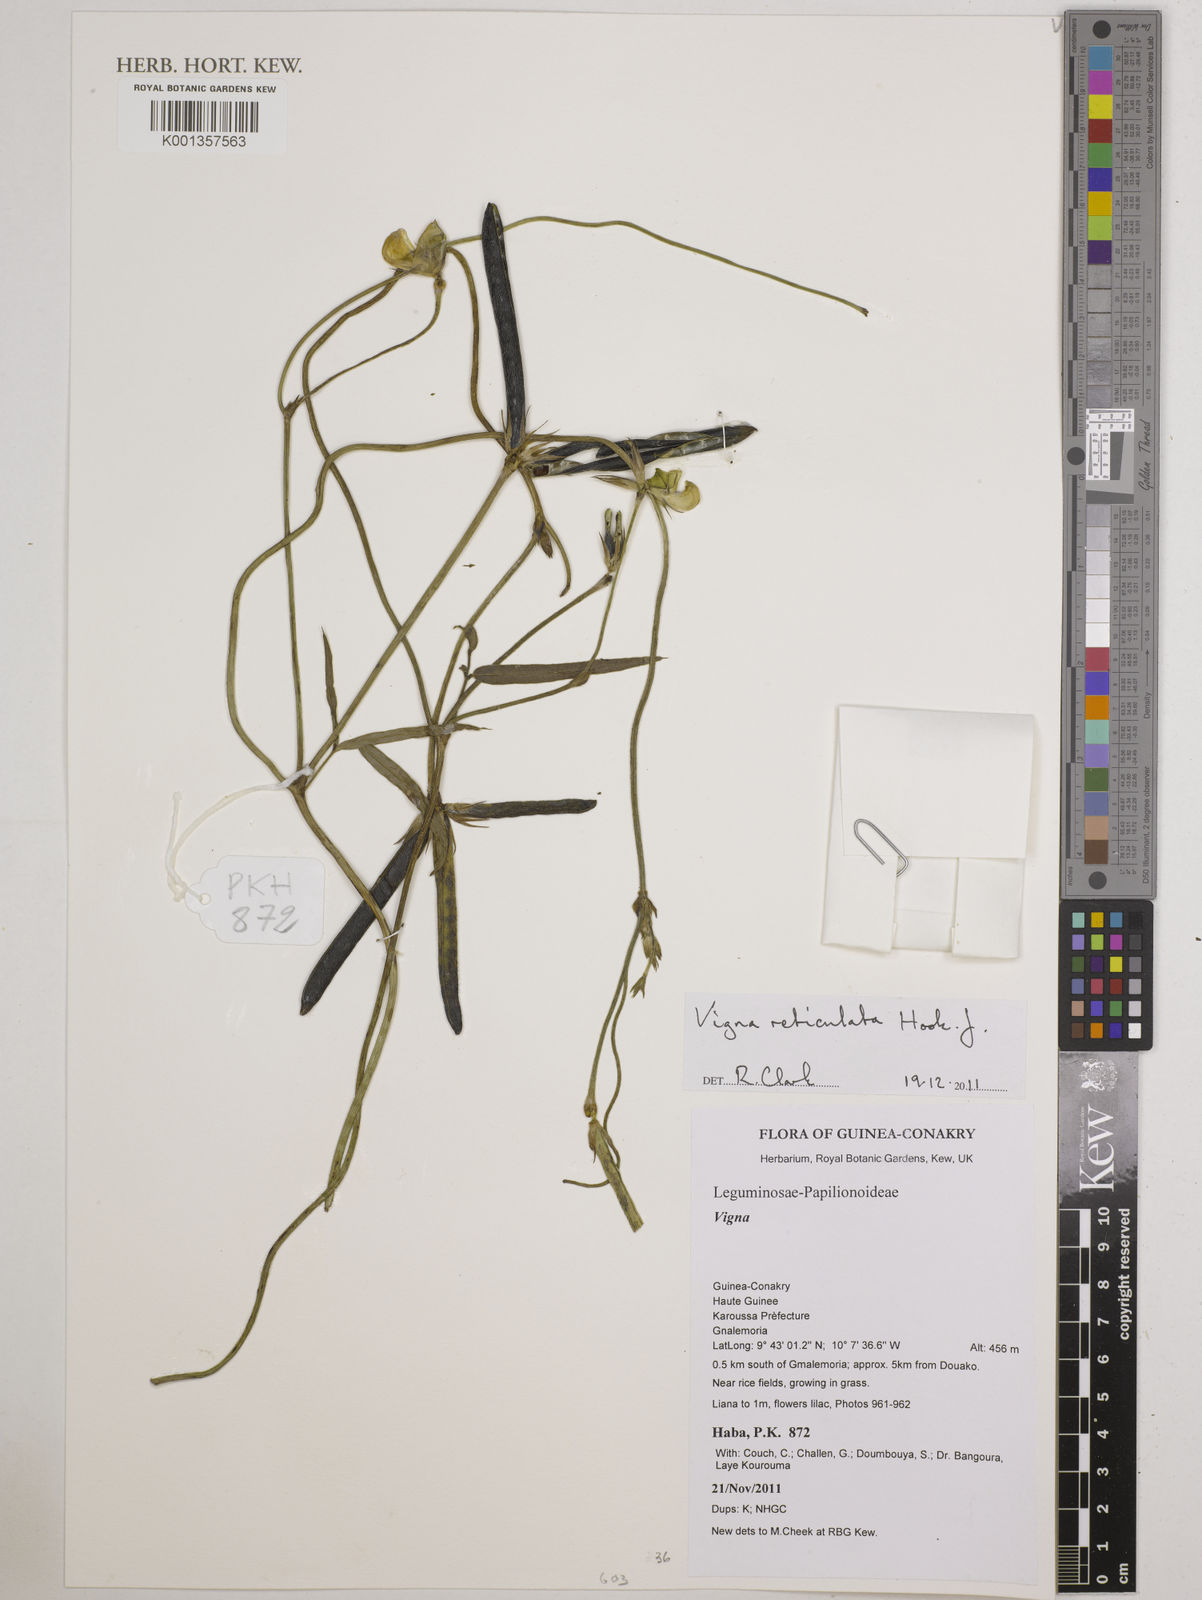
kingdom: Plantae
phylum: Tracheophyta
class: Magnoliopsida
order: Fabales
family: Fabaceae
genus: Vigna
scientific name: Vigna reticulata
